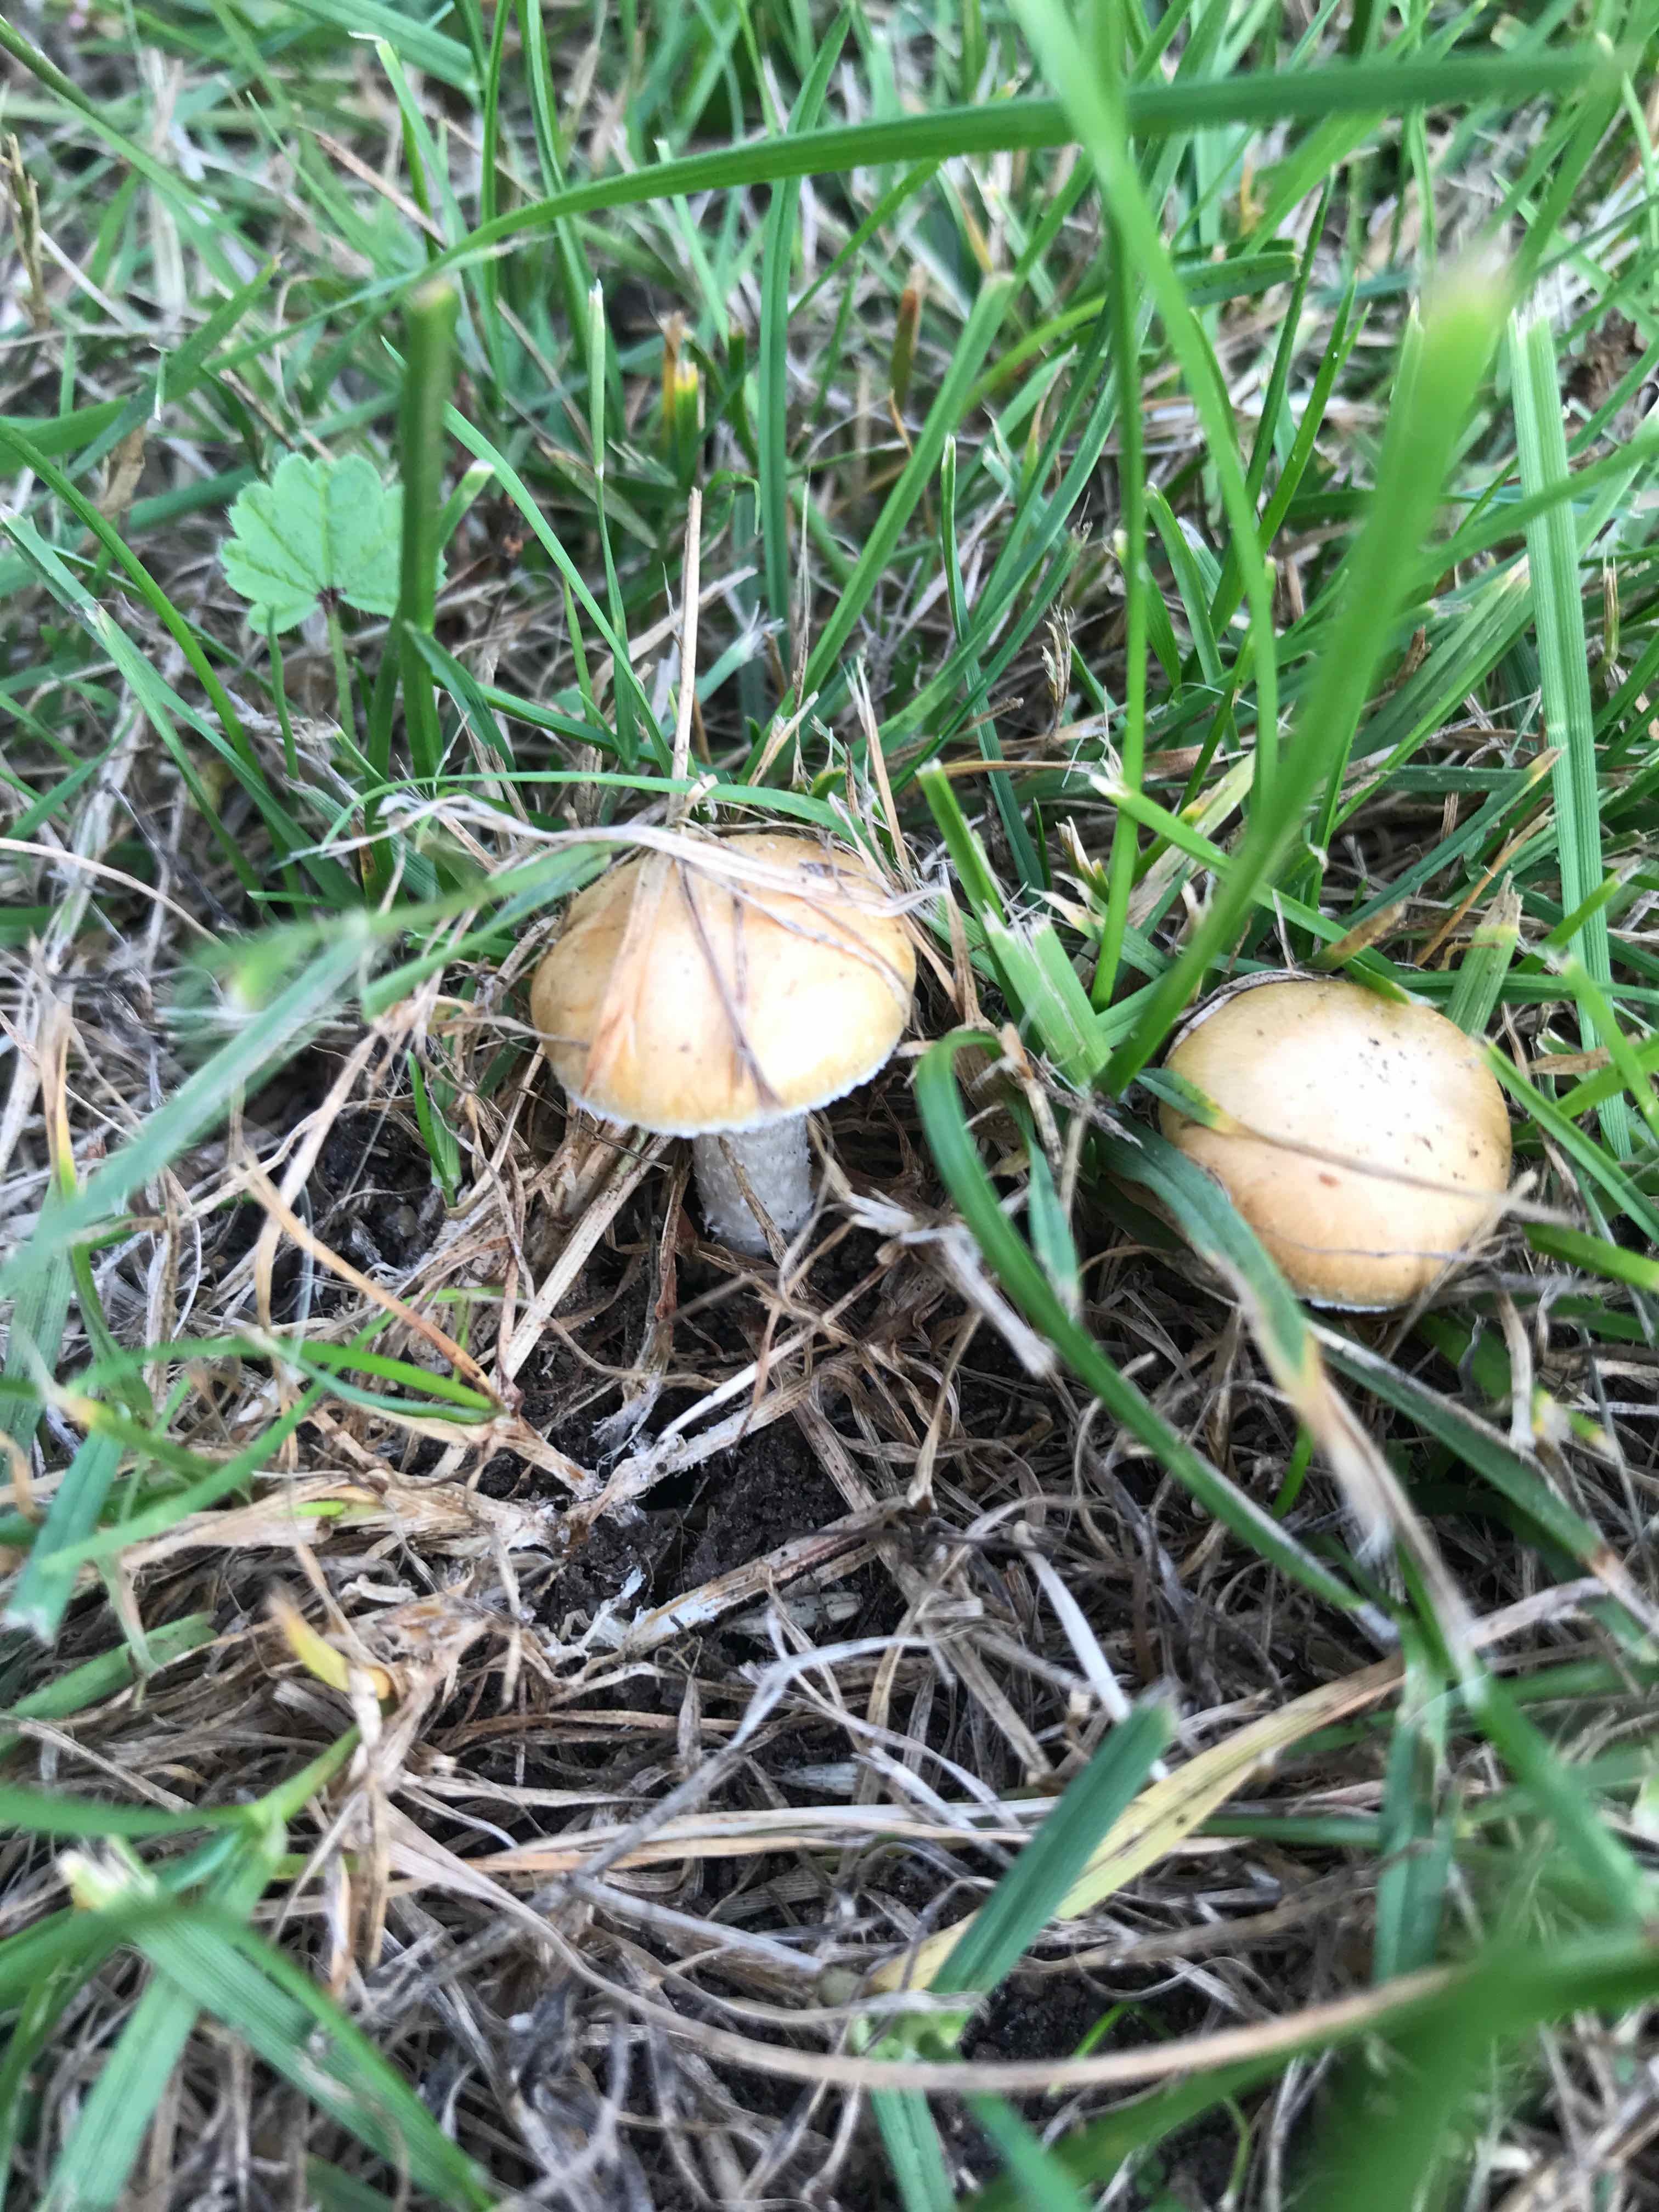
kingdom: Fungi
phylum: Basidiomycota
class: Agaricomycetes
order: Agaricales
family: Hymenogastraceae
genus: Psilocybe
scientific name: Psilocybe coronilla
